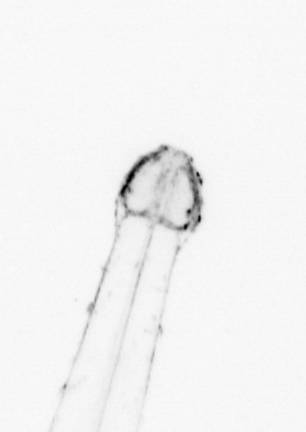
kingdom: Animalia
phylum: Chaetognatha
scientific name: Chaetognatha
